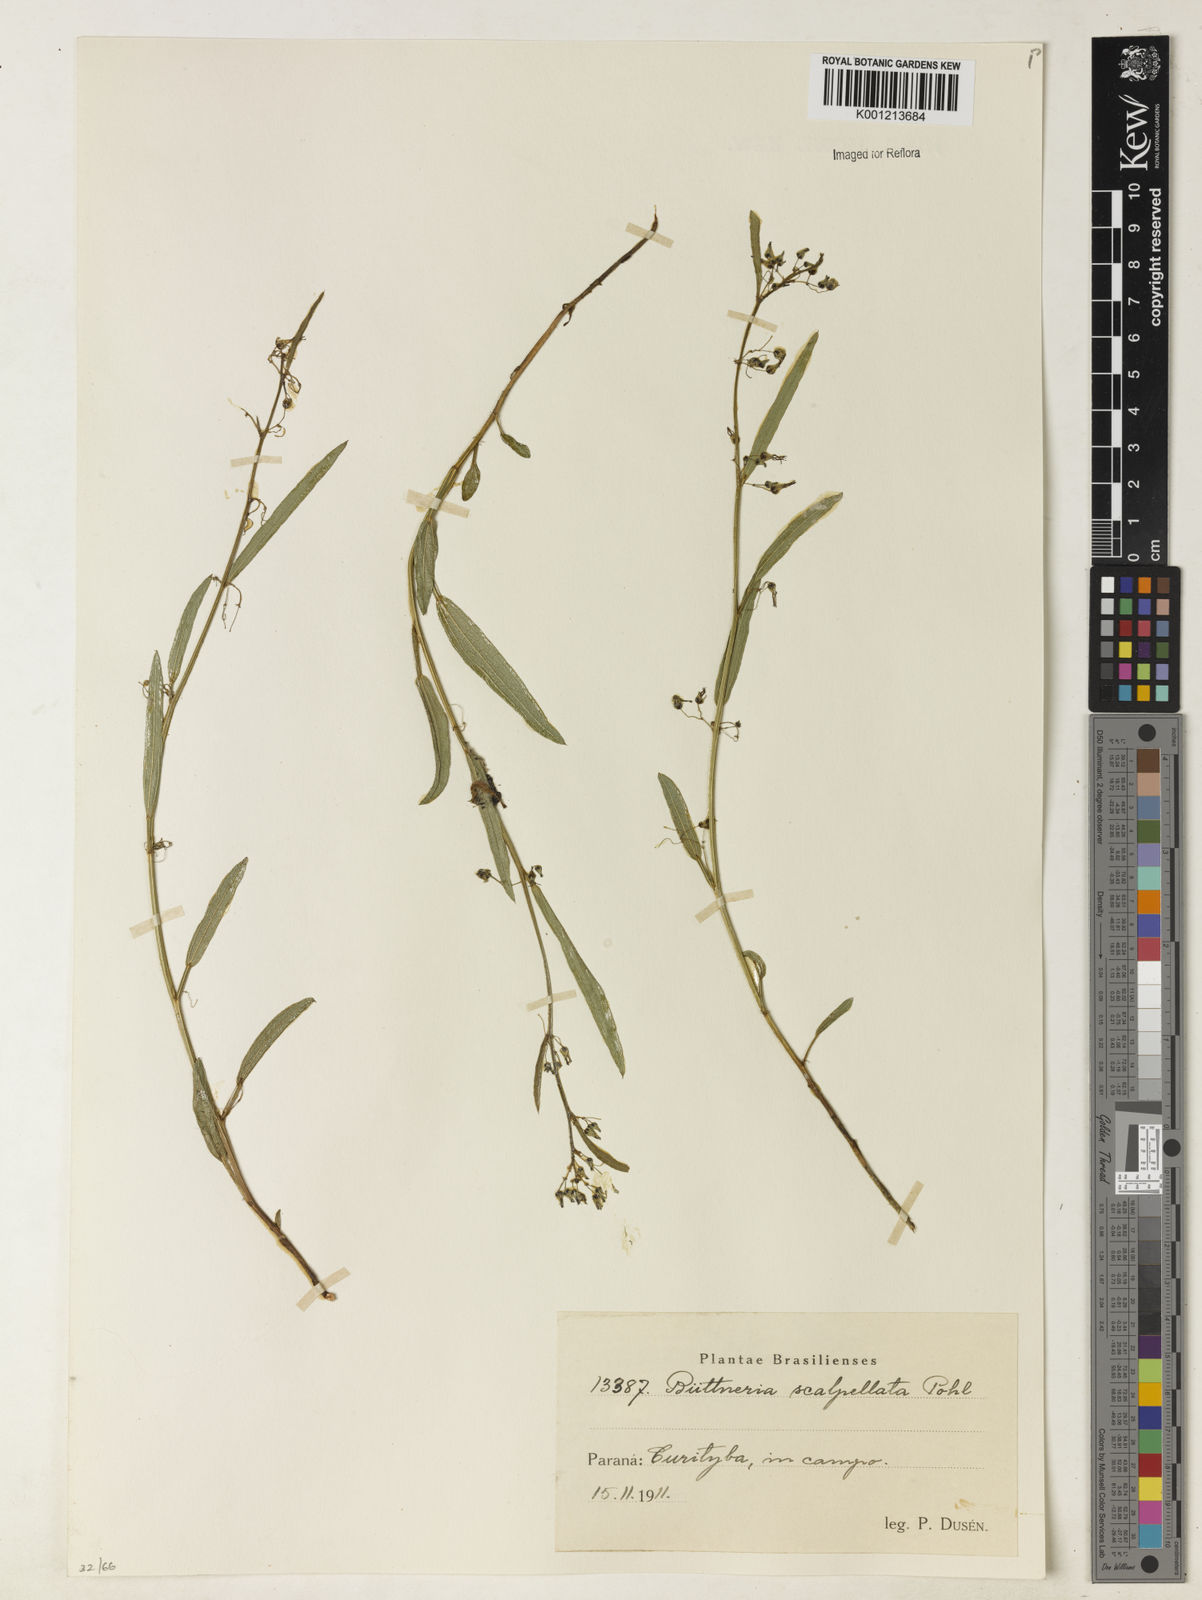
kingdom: Plantae
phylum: Tracheophyta
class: Magnoliopsida
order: Malvales
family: Malvaceae
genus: Byttneria
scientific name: Byttneria scalpellata
